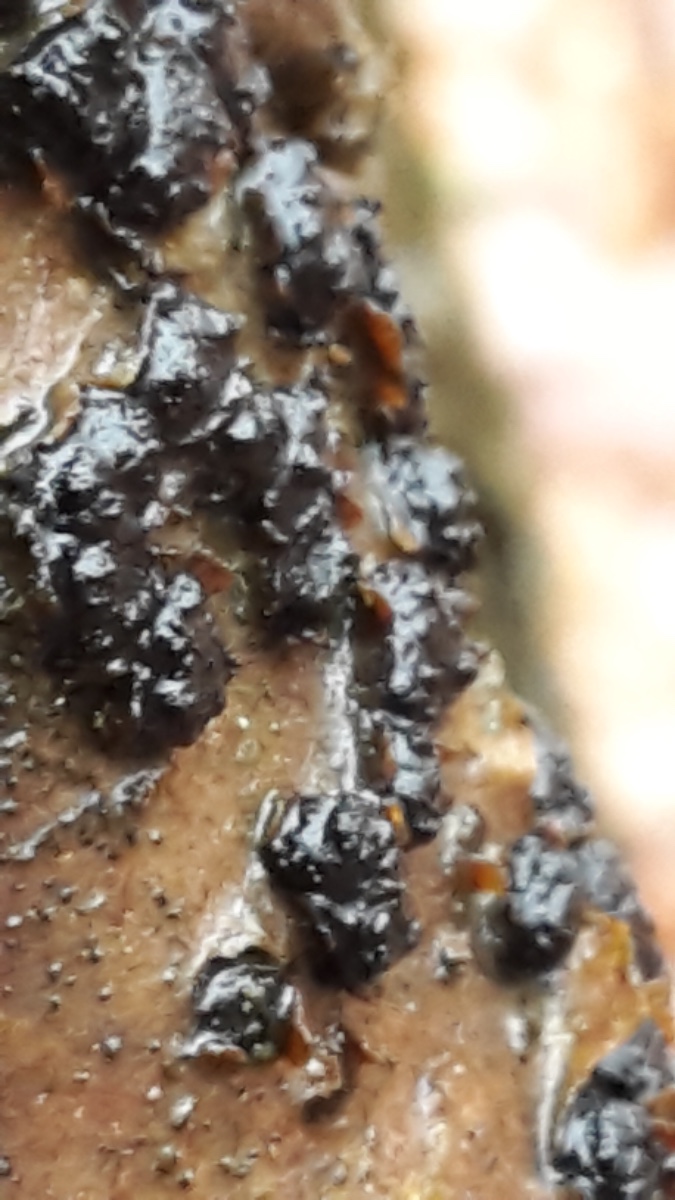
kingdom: Fungi
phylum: Ascomycota
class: Sordariomycetes
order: Xylariales
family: Diatrypaceae
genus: Diatrypella
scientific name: Diatrypella quercina
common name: ege-kulskorpe
